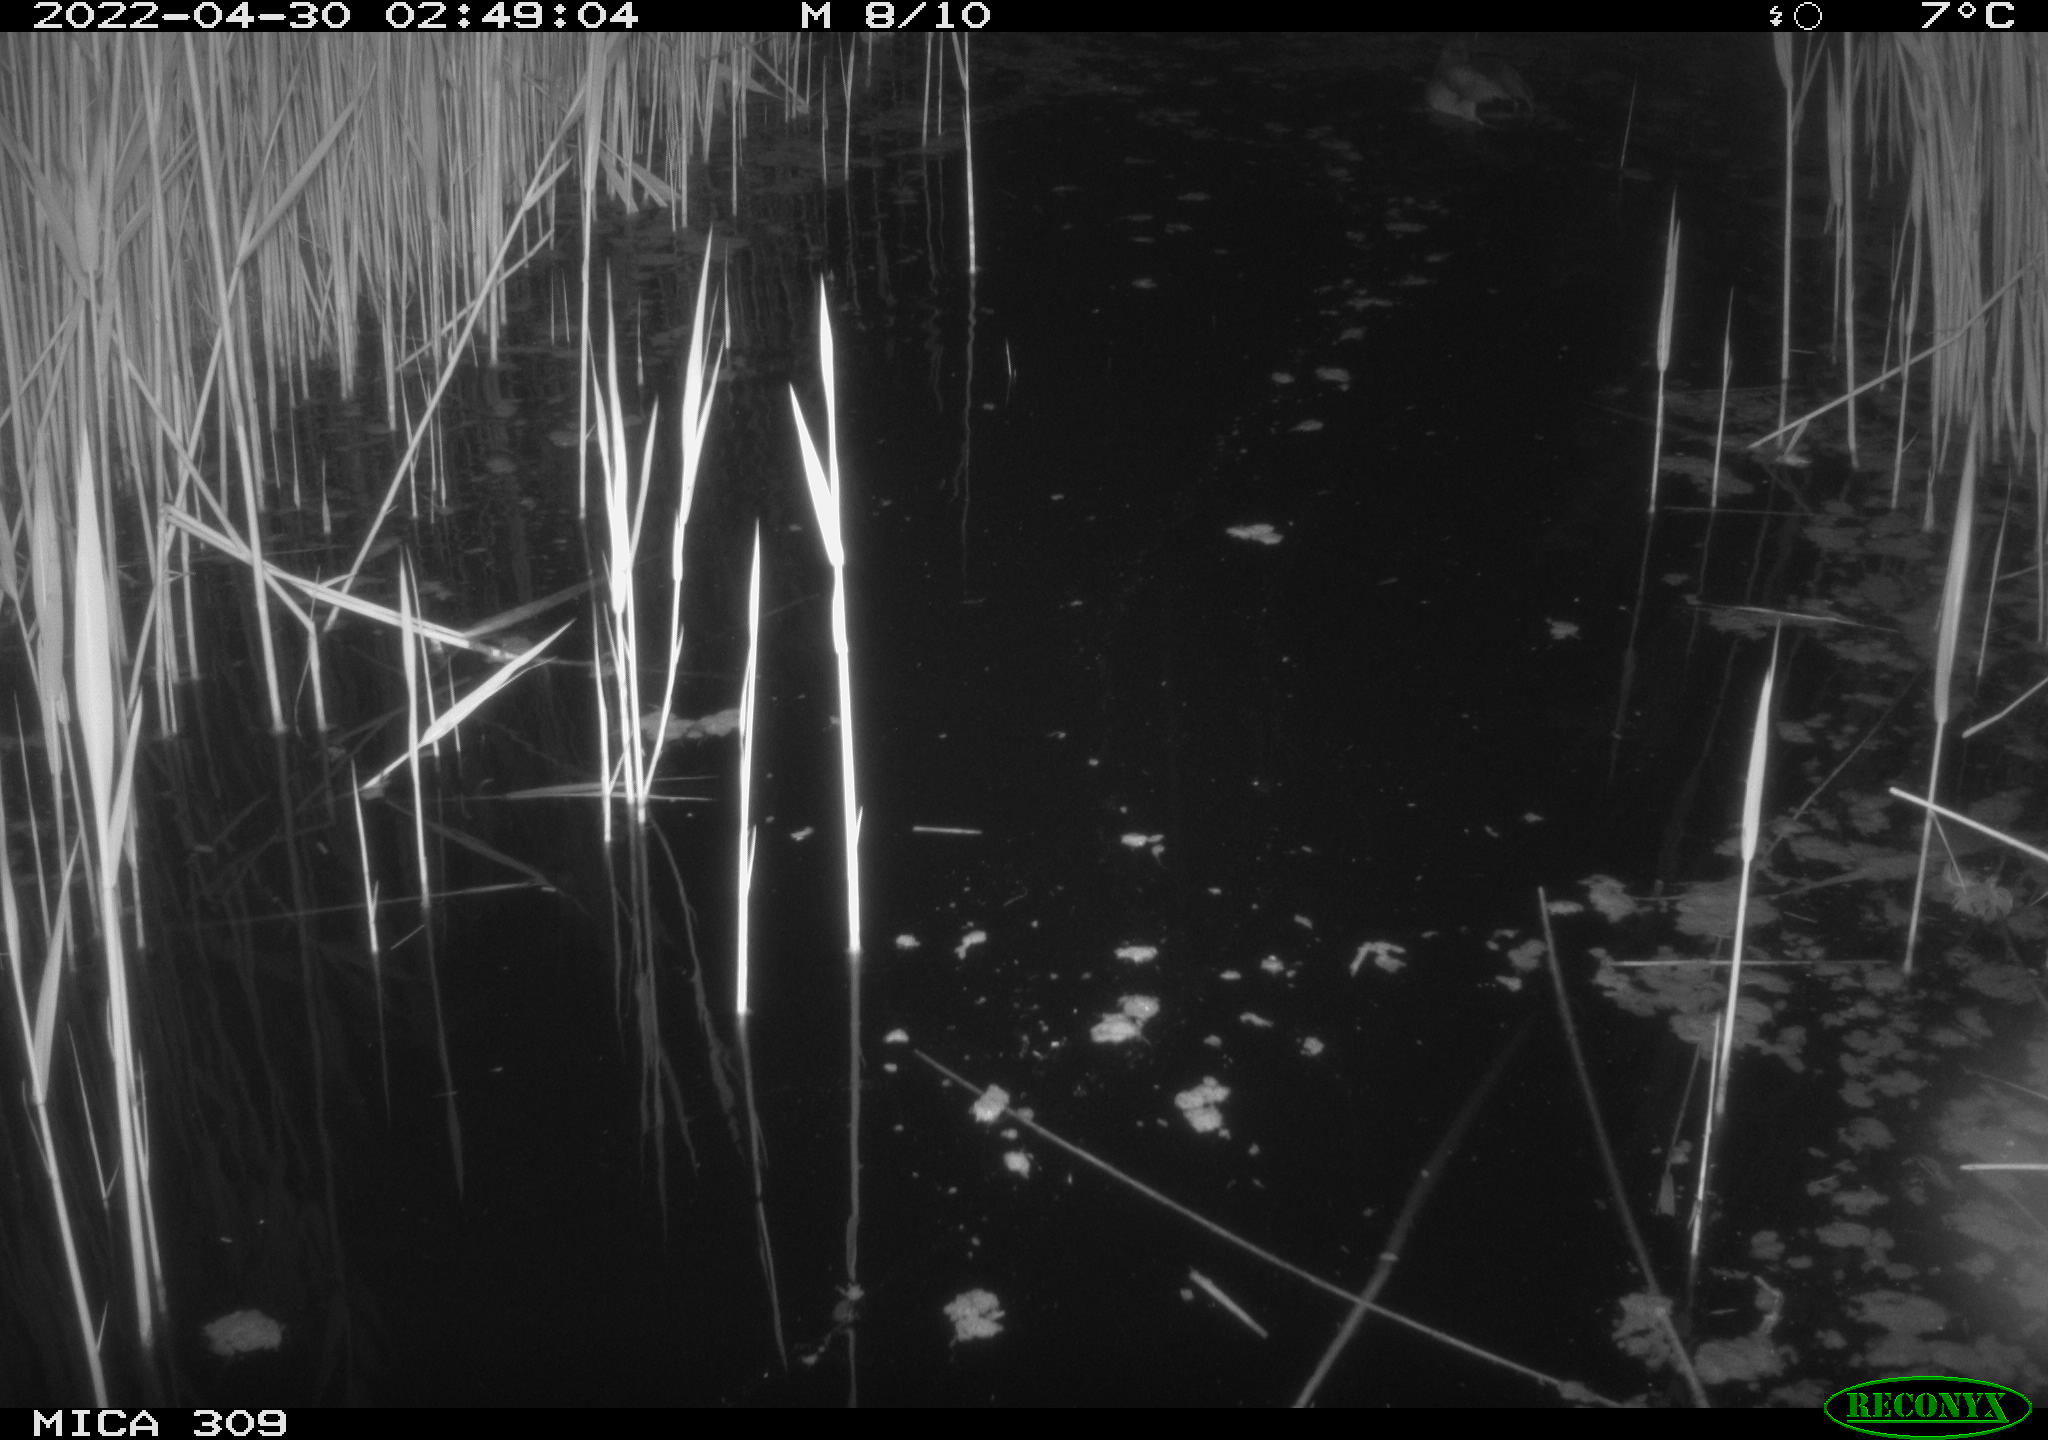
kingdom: Animalia
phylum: Chordata
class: Aves
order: Anseriformes
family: Anatidae
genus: Anas
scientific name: Anas platyrhynchos
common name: Mallard
